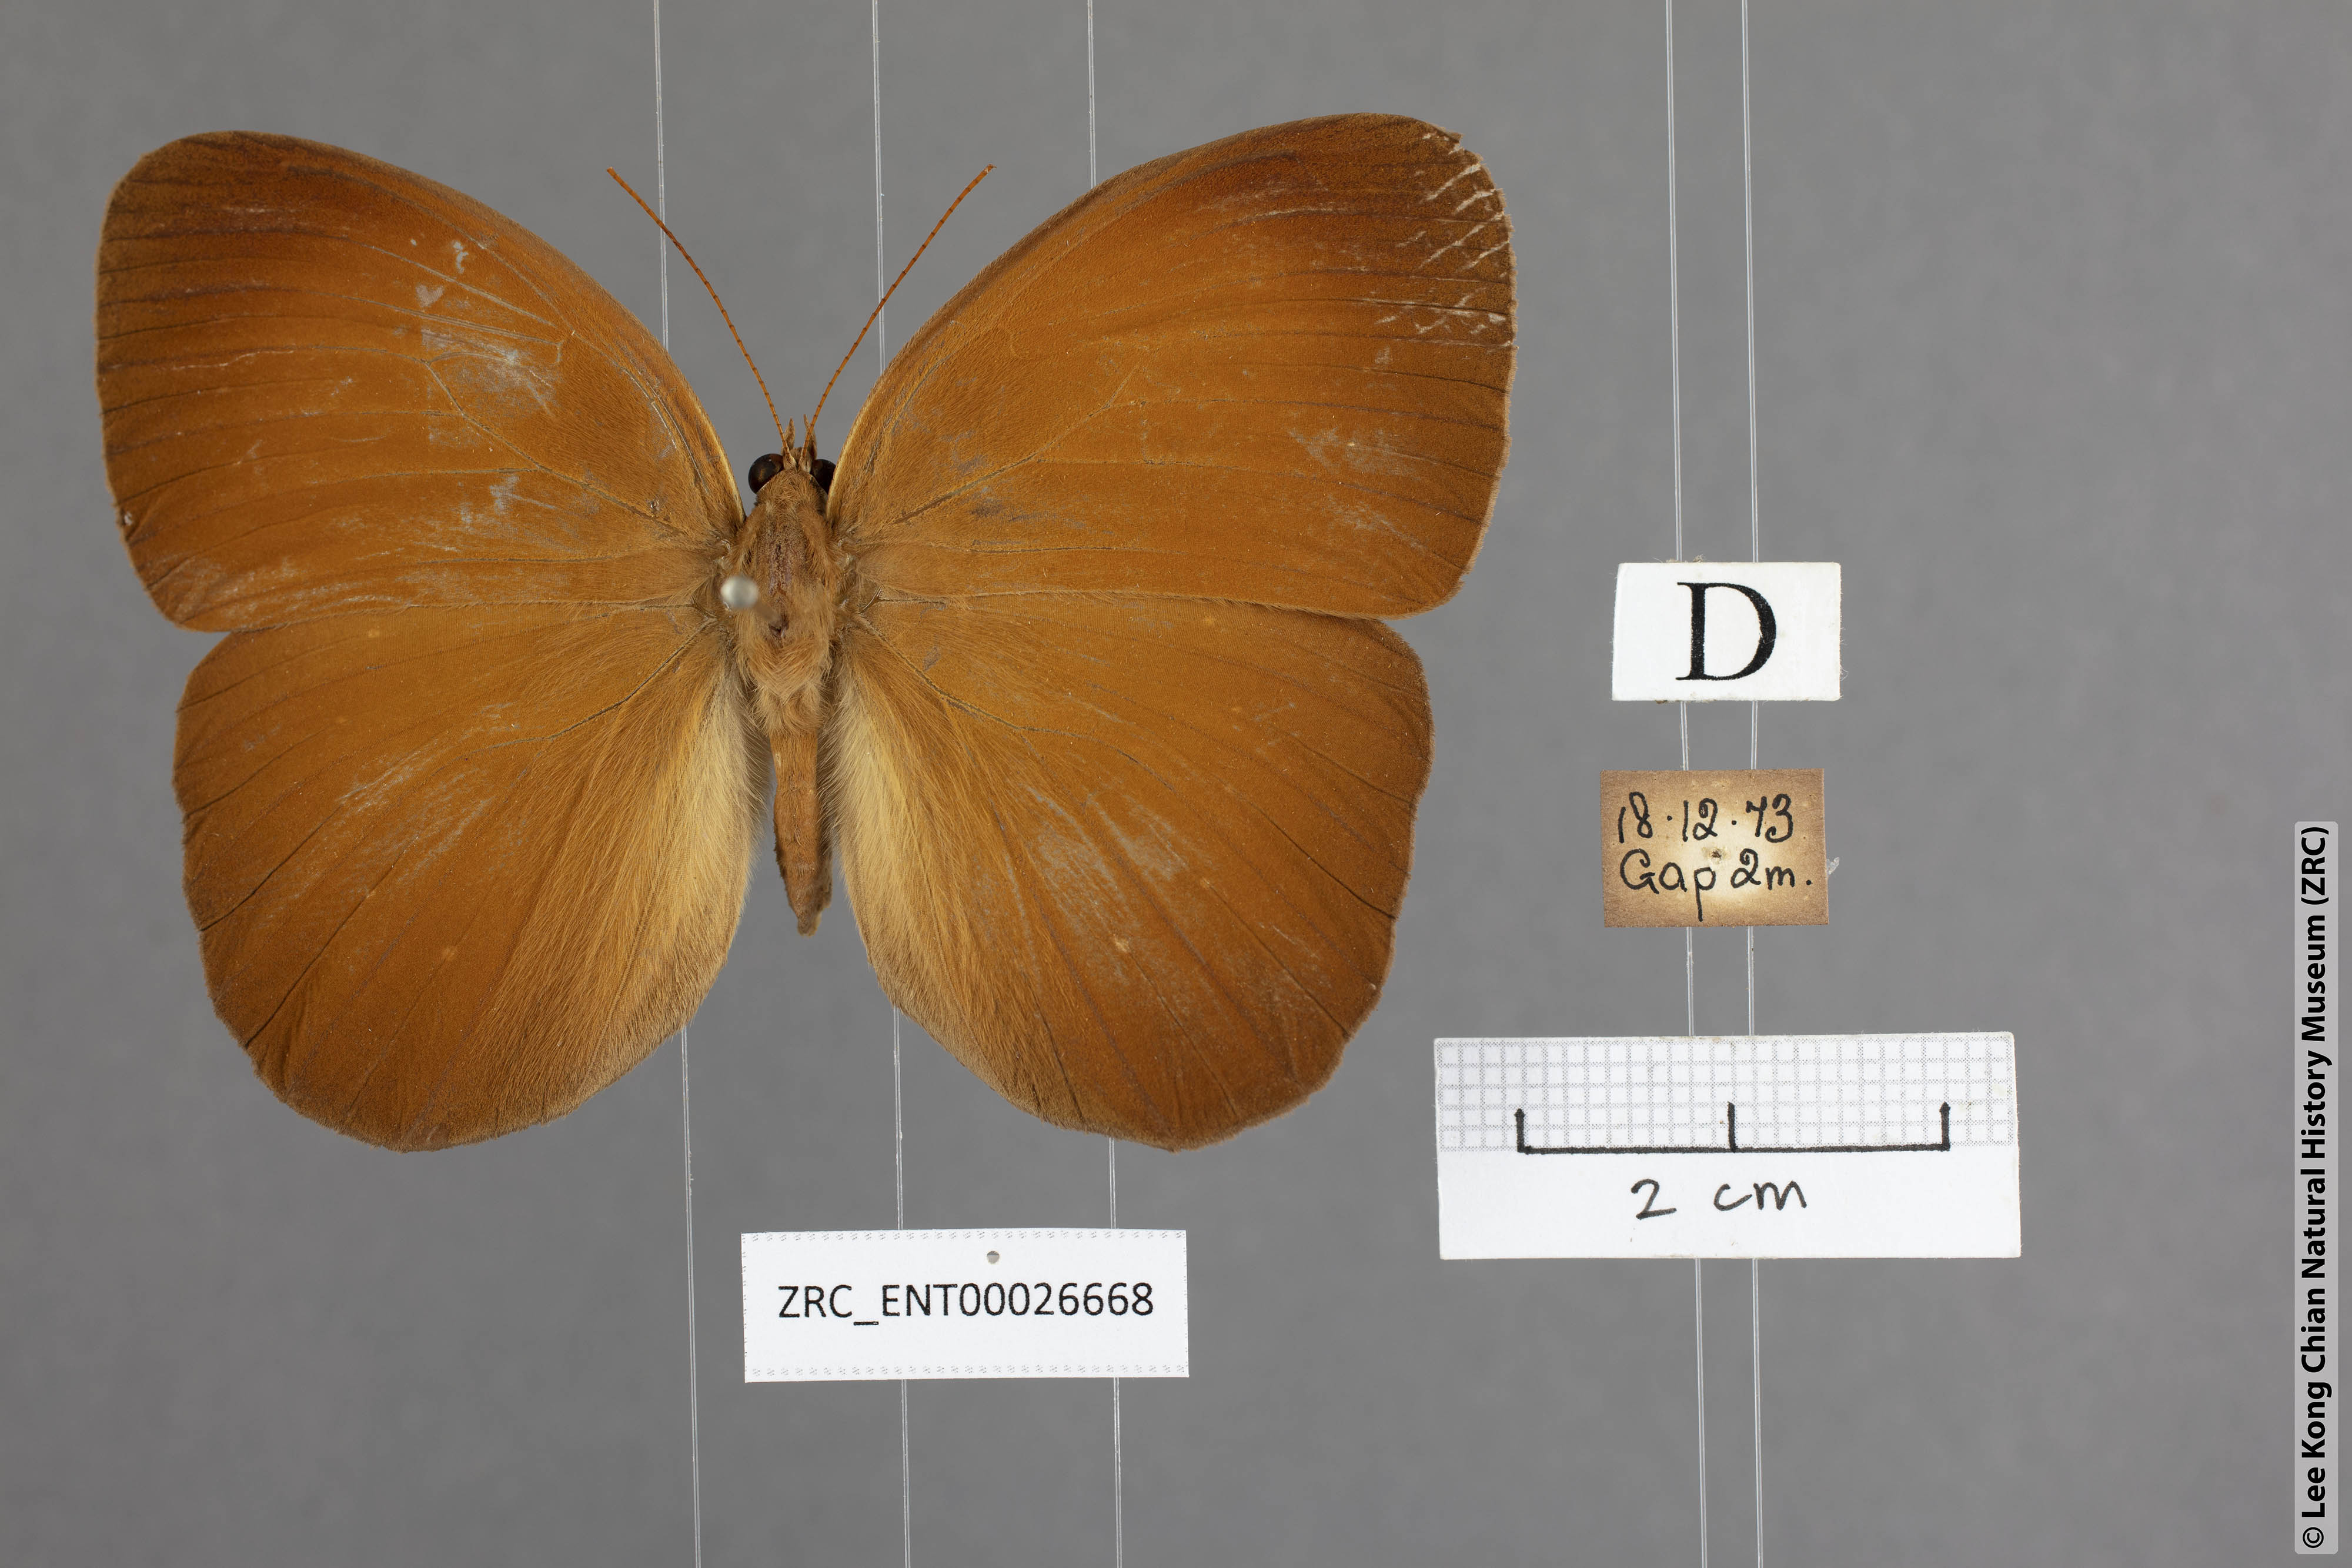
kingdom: Animalia
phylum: Arthropoda
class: Insecta
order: Lepidoptera
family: Nymphalidae
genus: Faunis
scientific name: Faunis canens
